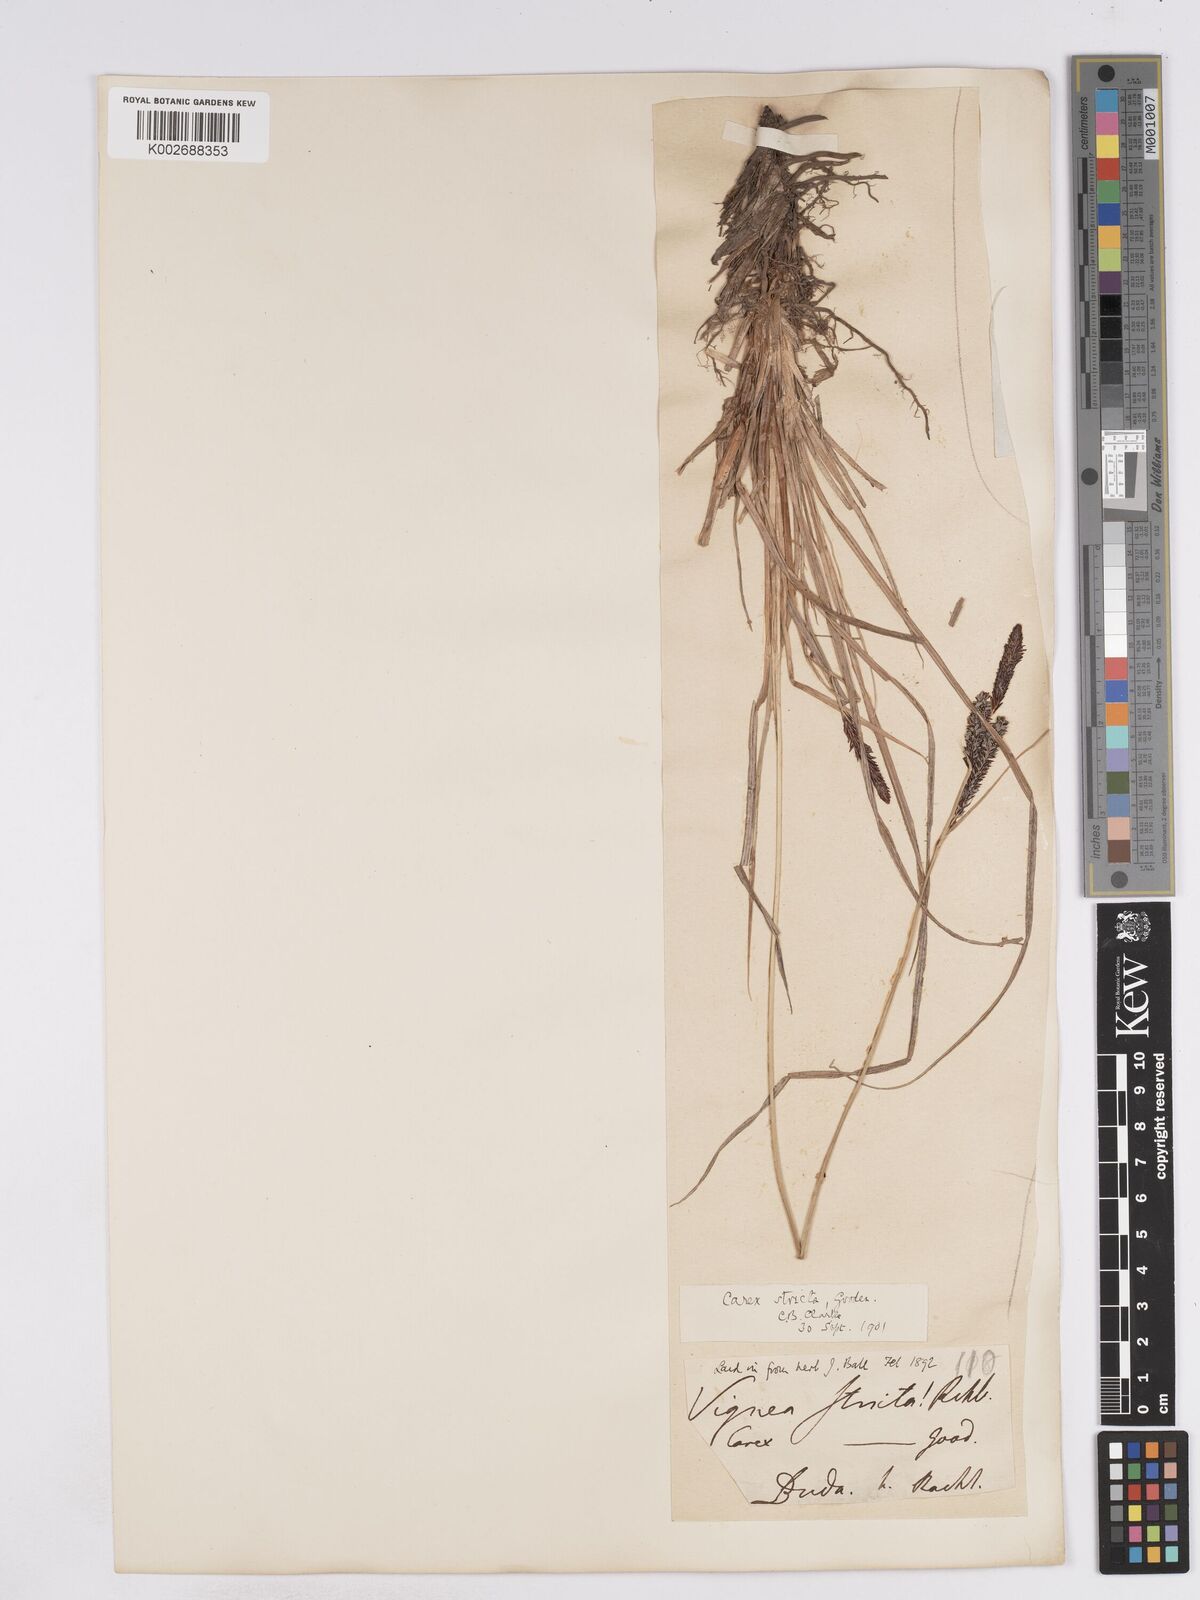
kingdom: Plantae
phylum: Tracheophyta
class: Liliopsida
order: Poales
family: Cyperaceae
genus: Carex
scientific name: Carex elata
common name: Tufted sedge
